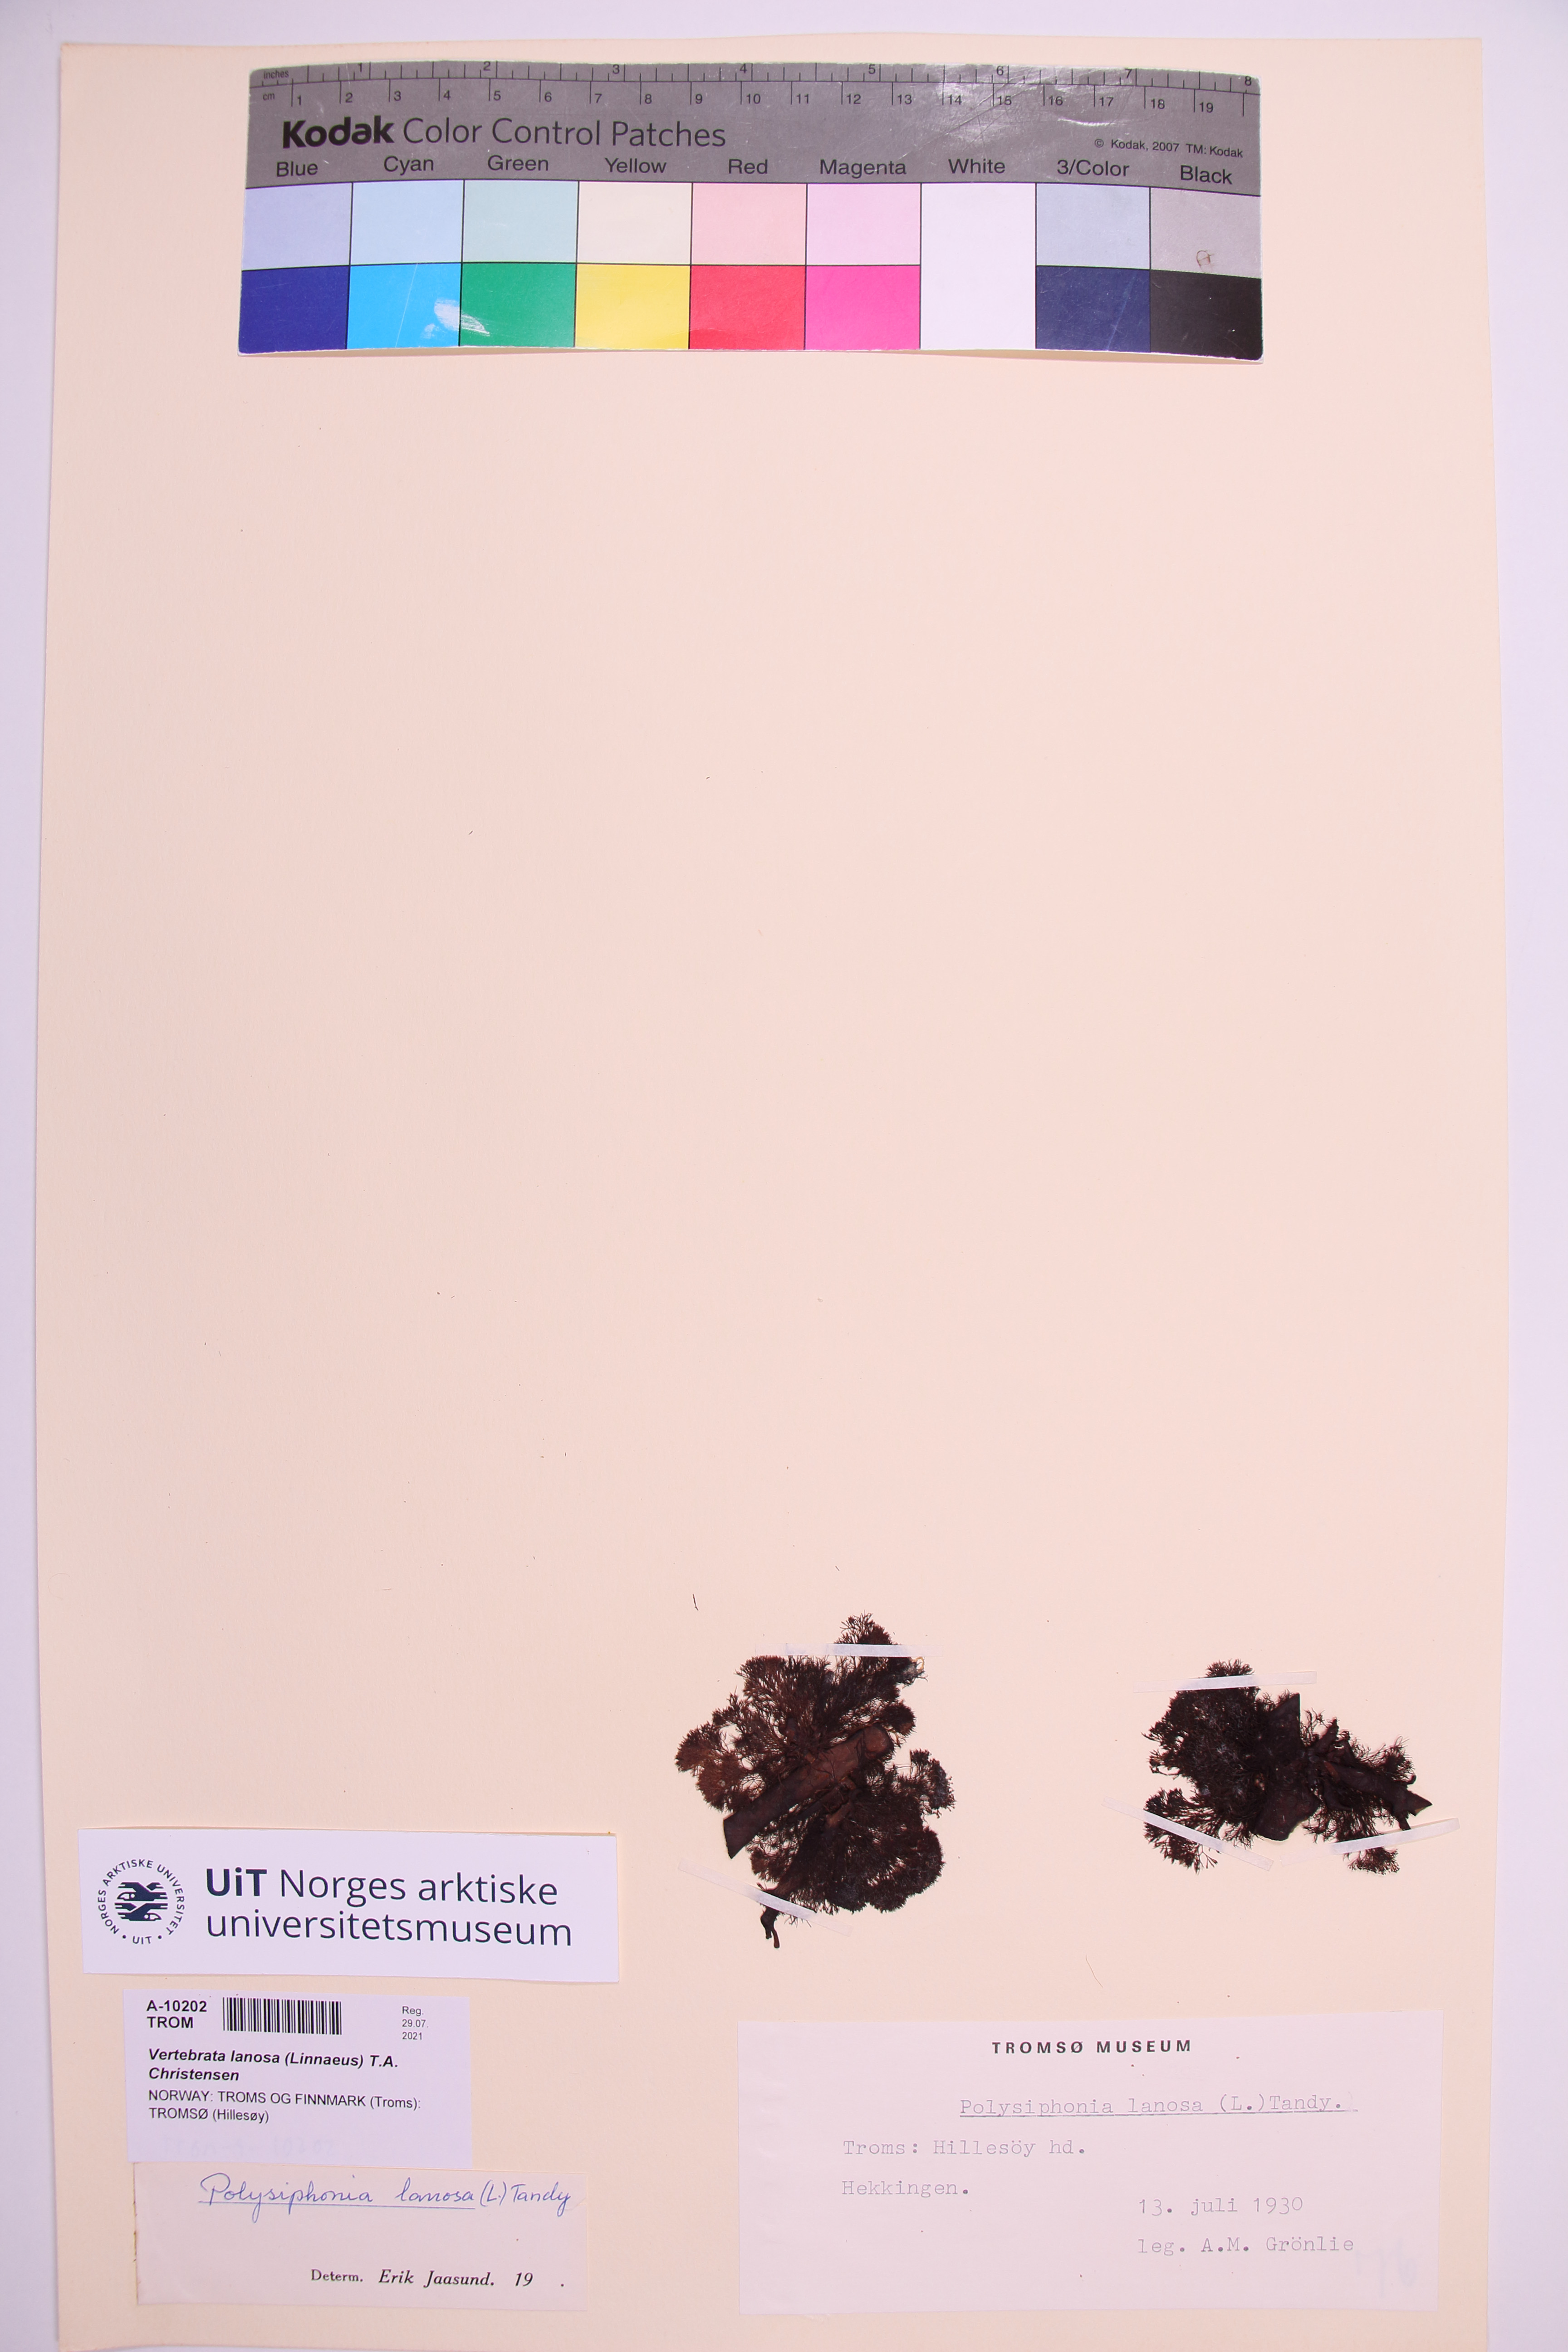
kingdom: Plantae
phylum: Rhodophyta
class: Florideophyceae
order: Ceramiales
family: Rhodomelaceae
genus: Vertebrata
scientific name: Vertebrata lanosa
